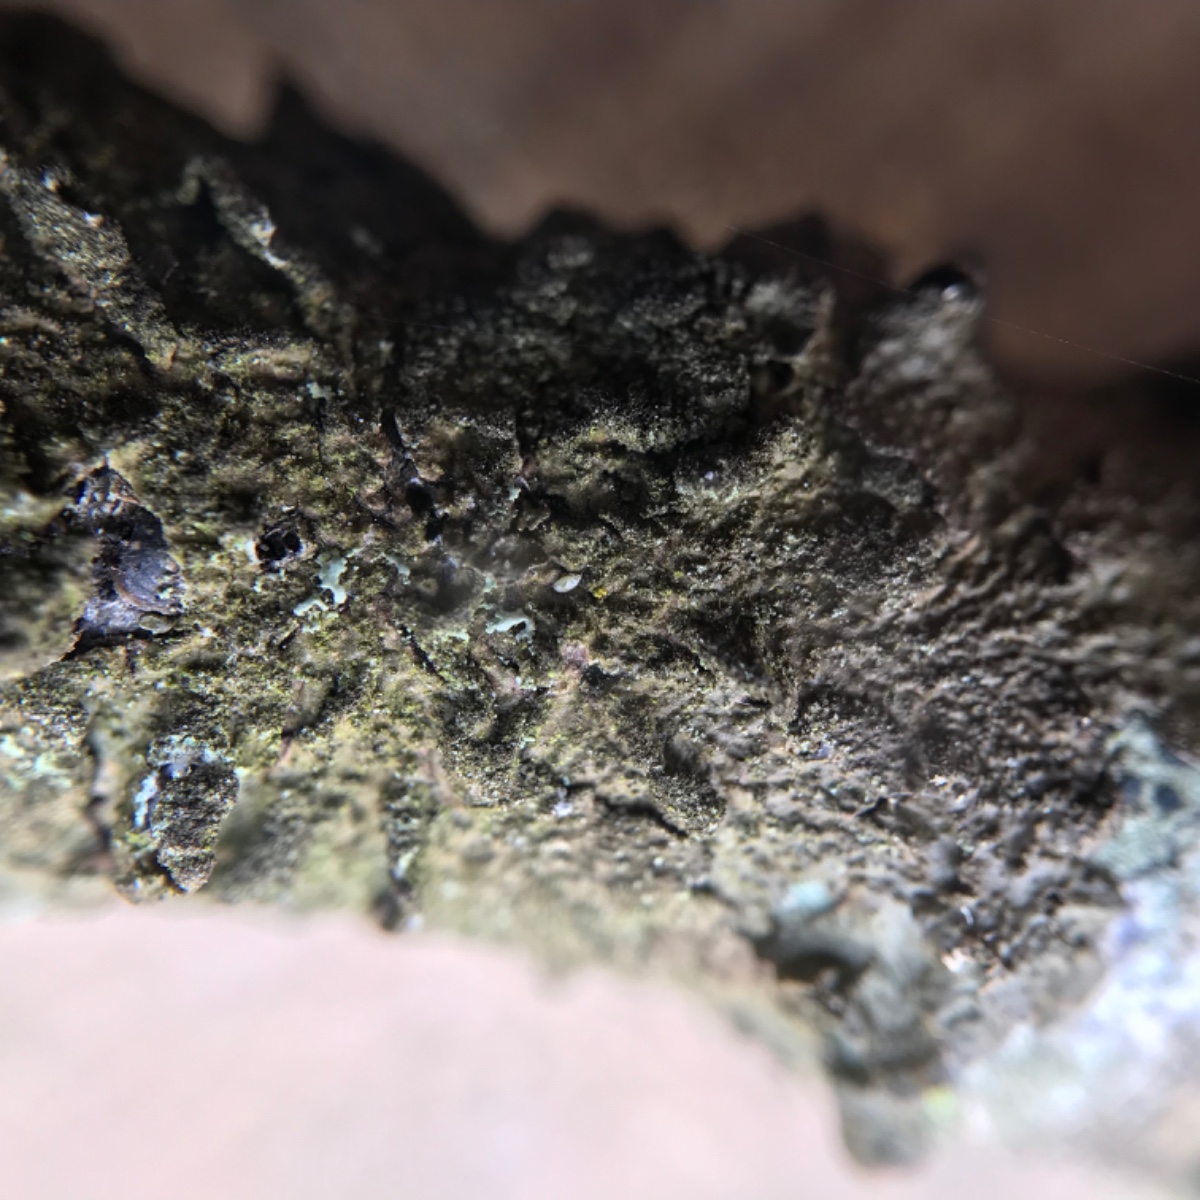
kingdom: Fungi
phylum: Ascomycota
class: Lecanoromycetes
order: Lecanorales
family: Parmeliaceae
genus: Melanelixia
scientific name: Melanelixia subaurifera
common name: guldpudret skållav
